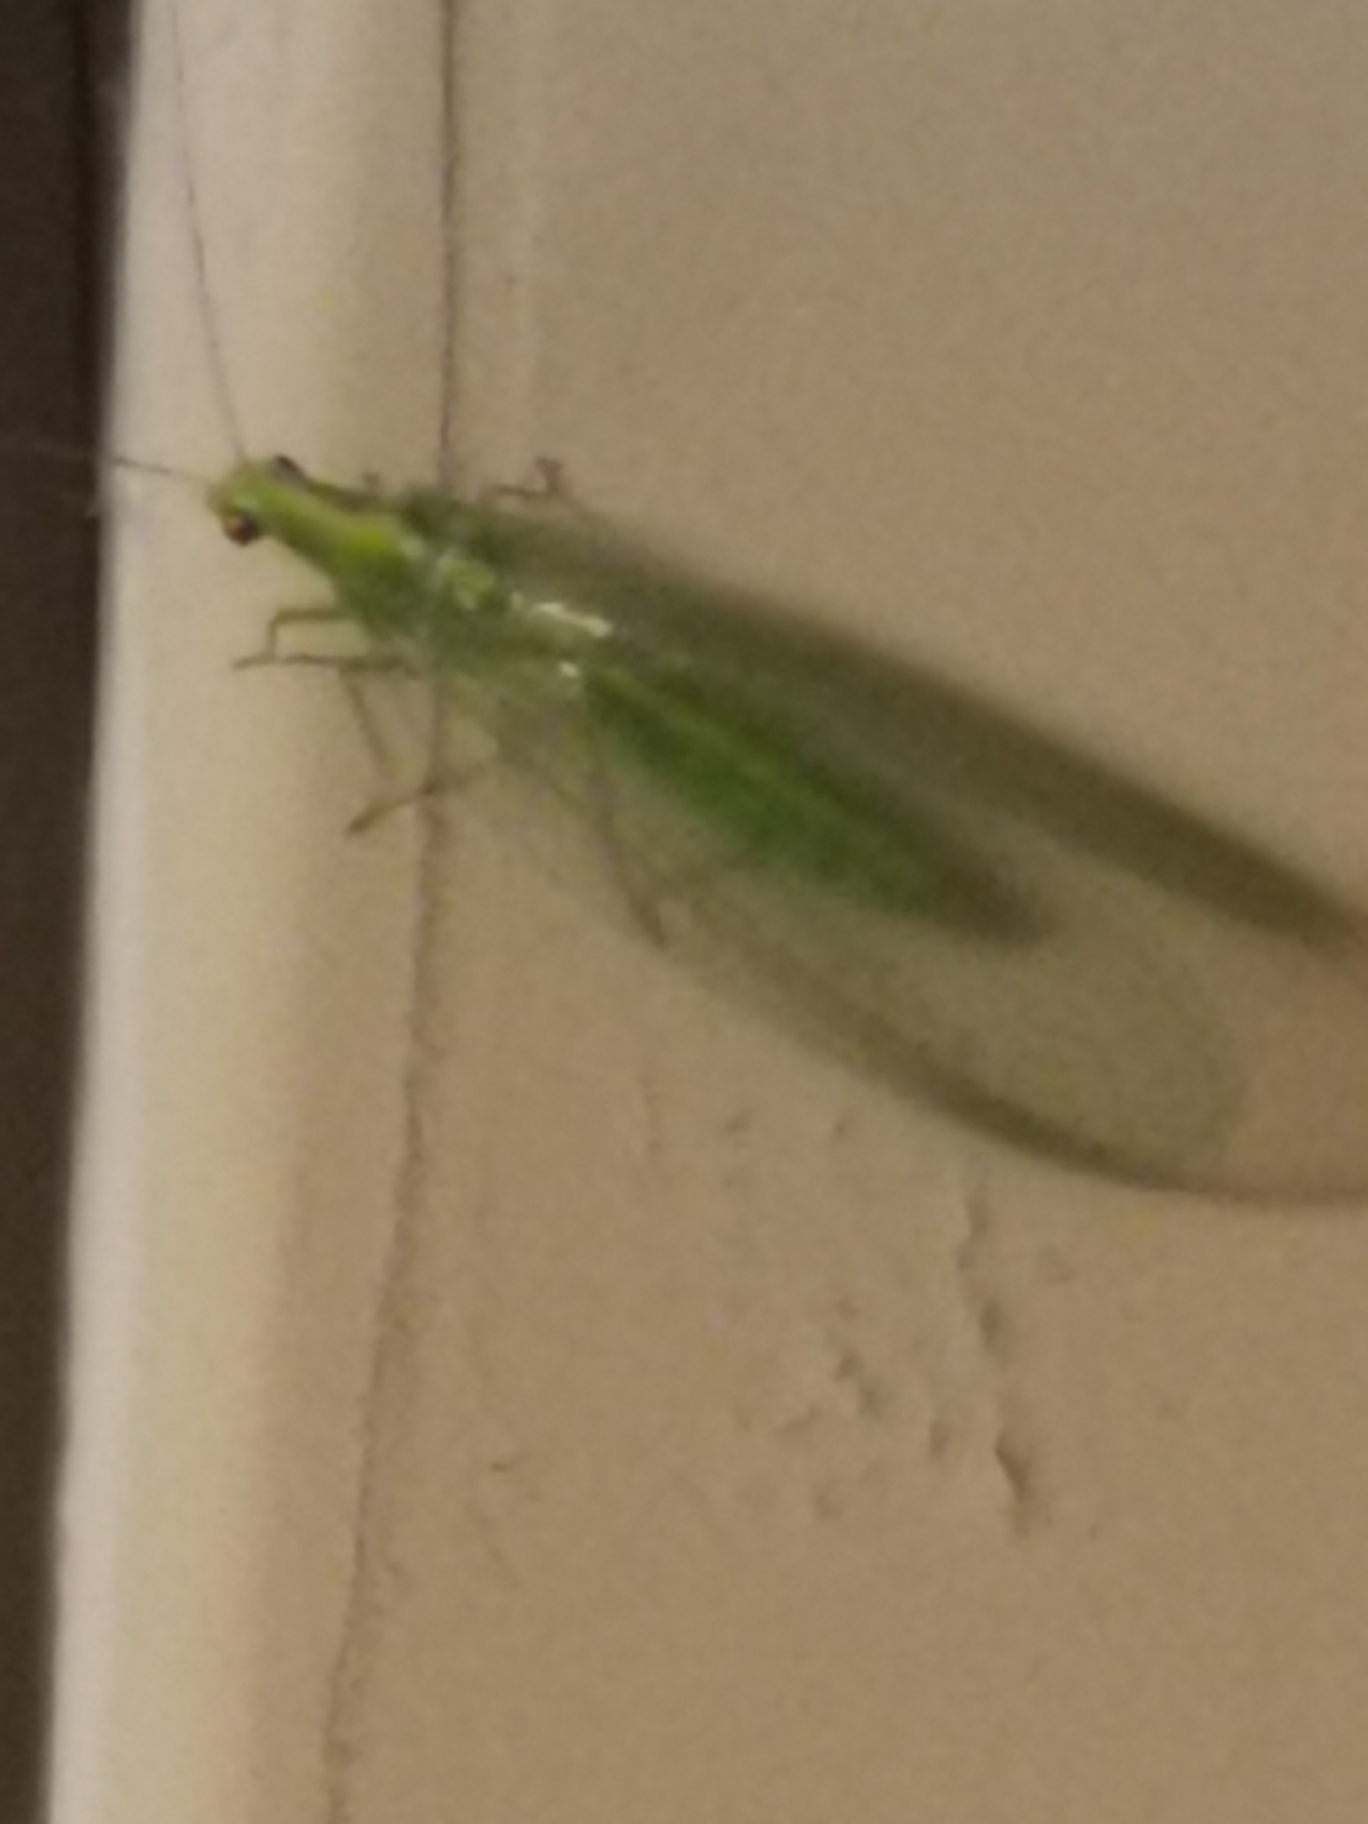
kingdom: Animalia
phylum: Arthropoda
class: Insecta
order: Neuroptera
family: Chrysopidae
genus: Chrysoperla
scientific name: Chrysoperla carnea
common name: Almindelig guldøje
